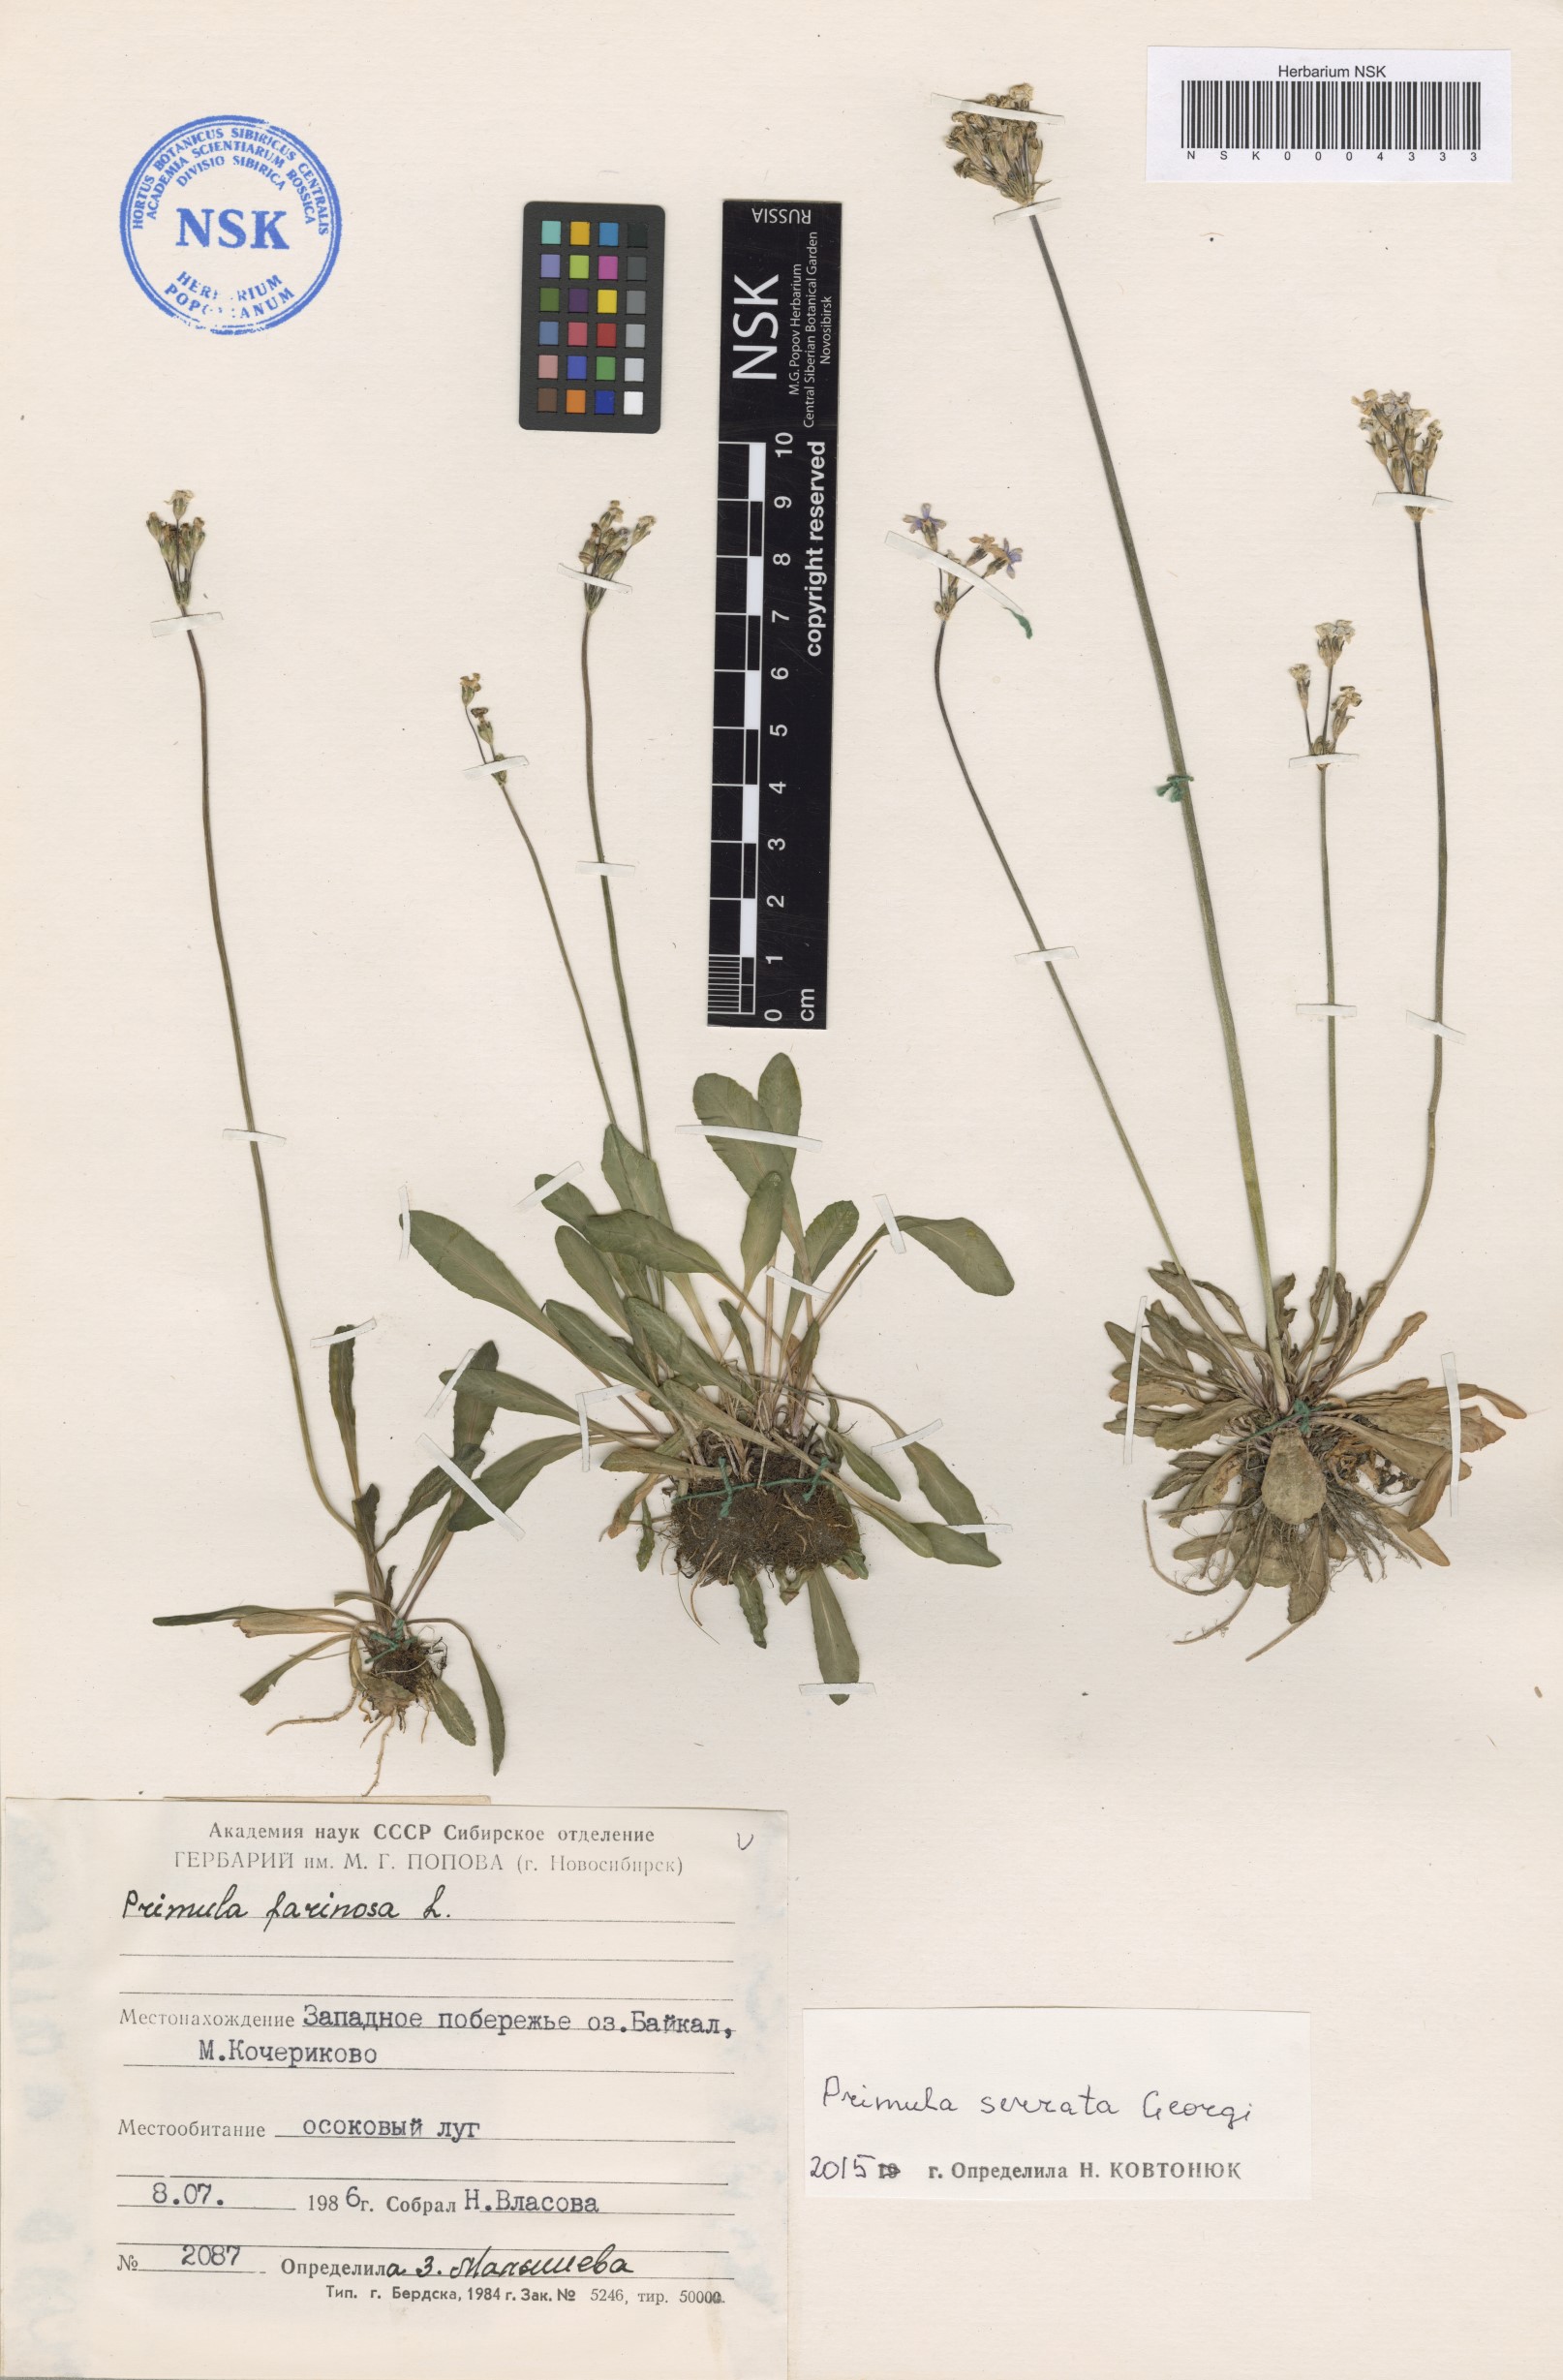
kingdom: Plantae
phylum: Tracheophyta
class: Magnoliopsida
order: Ericales
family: Primulaceae
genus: Primula
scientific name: Primula serrata
